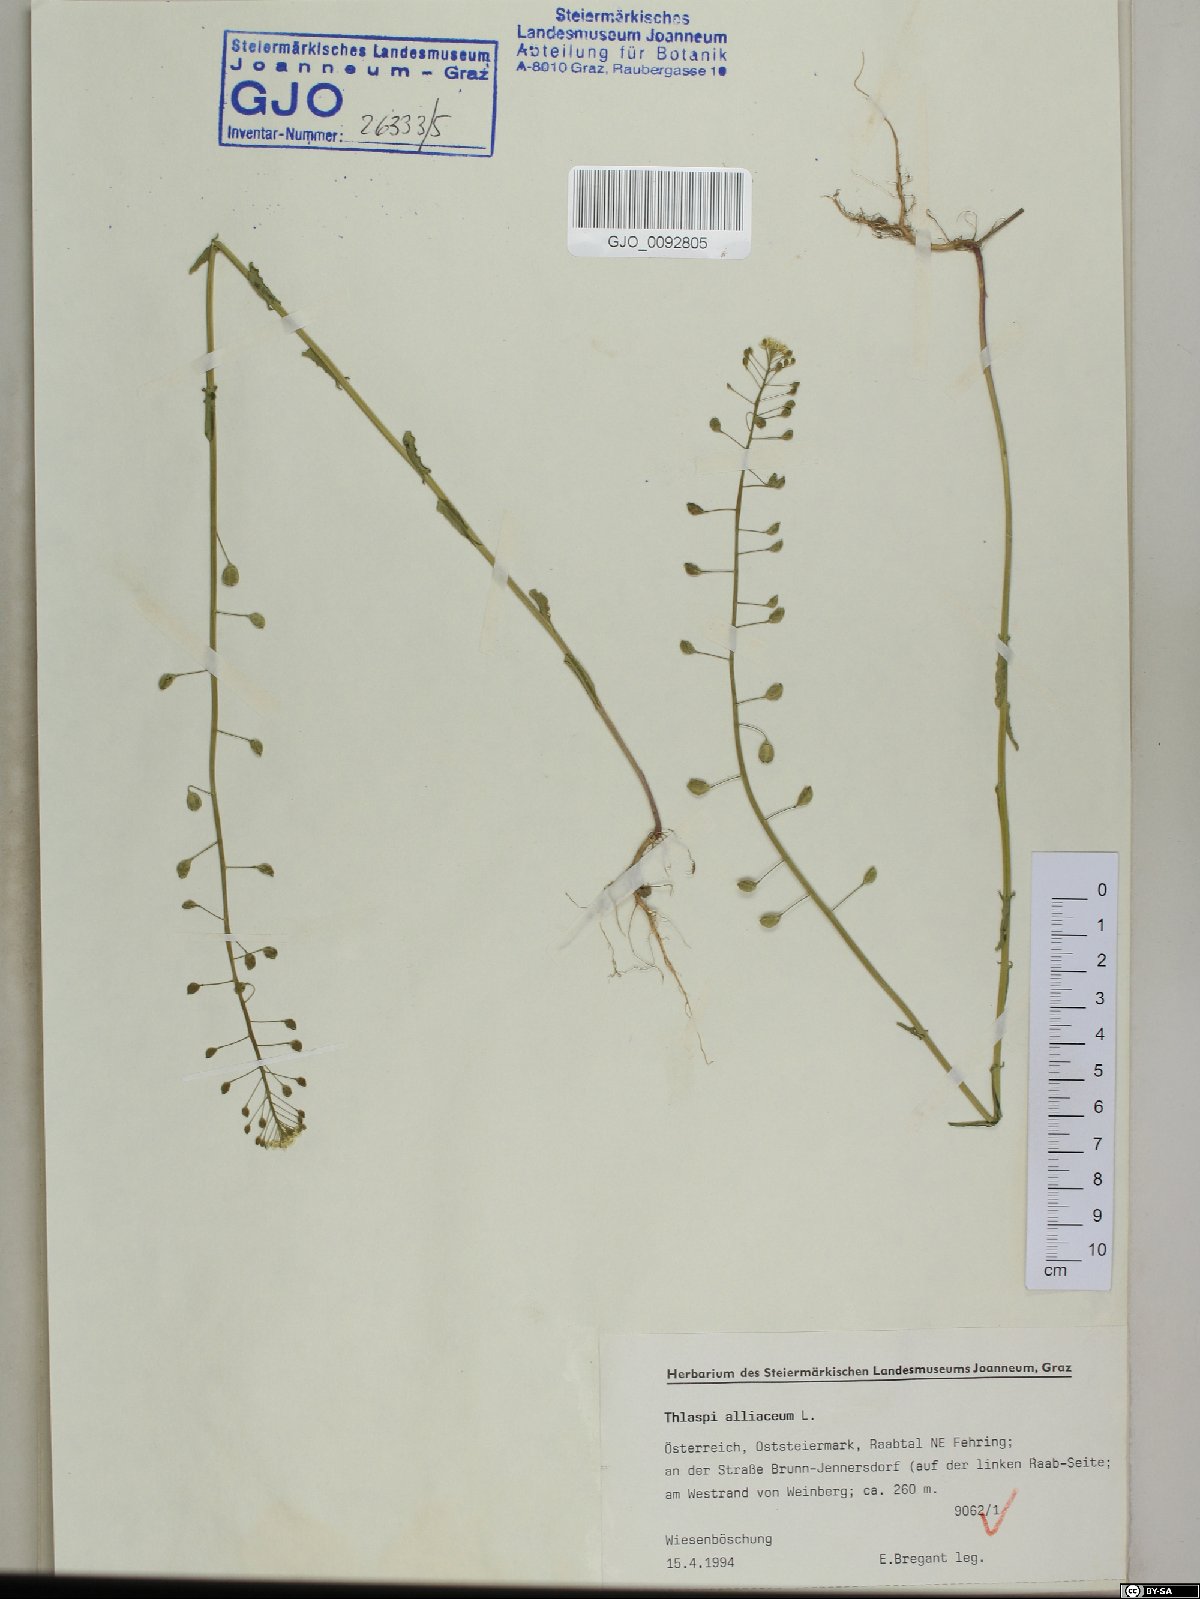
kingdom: Plantae
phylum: Tracheophyta
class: Magnoliopsida
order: Brassicales
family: Brassicaceae
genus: Mummenhoffia
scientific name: Mummenhoffia alliacea
